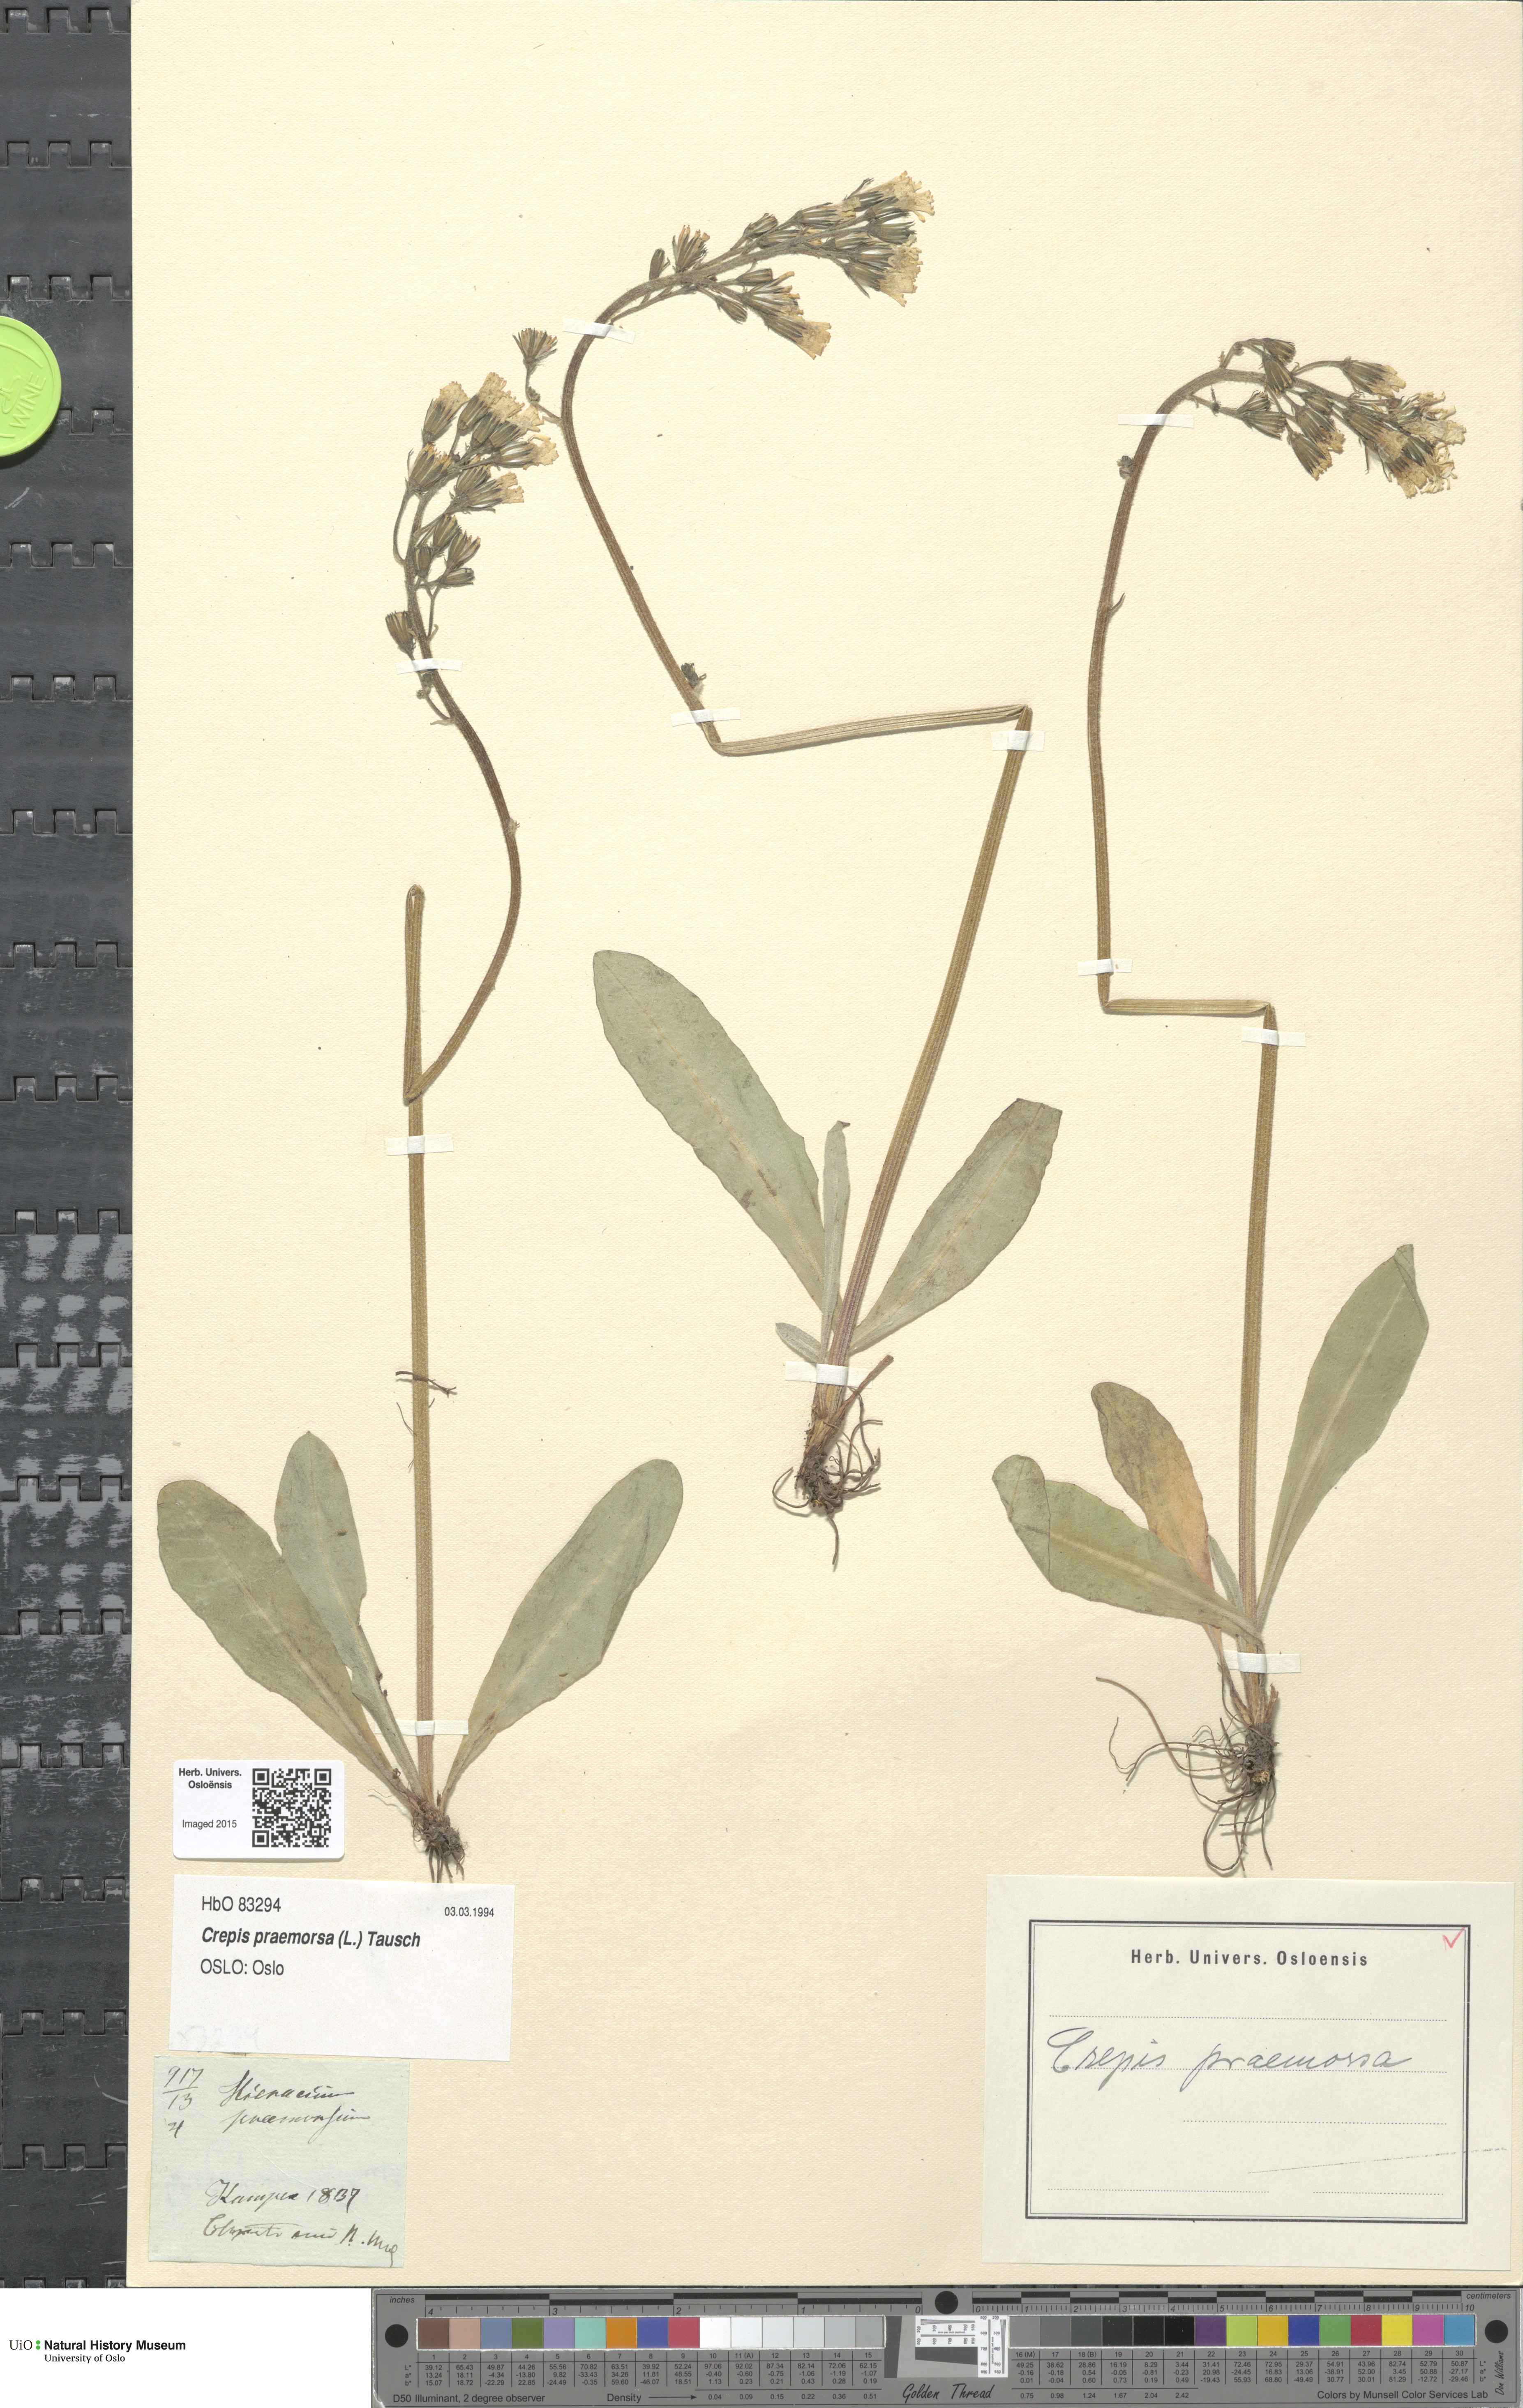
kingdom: Plantae
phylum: Tracheophyta
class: Magnoliopsida
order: Asterales
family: Asteraceae
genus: Crepis
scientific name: Crepis praemorsa
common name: Leafless hawk's-beard
